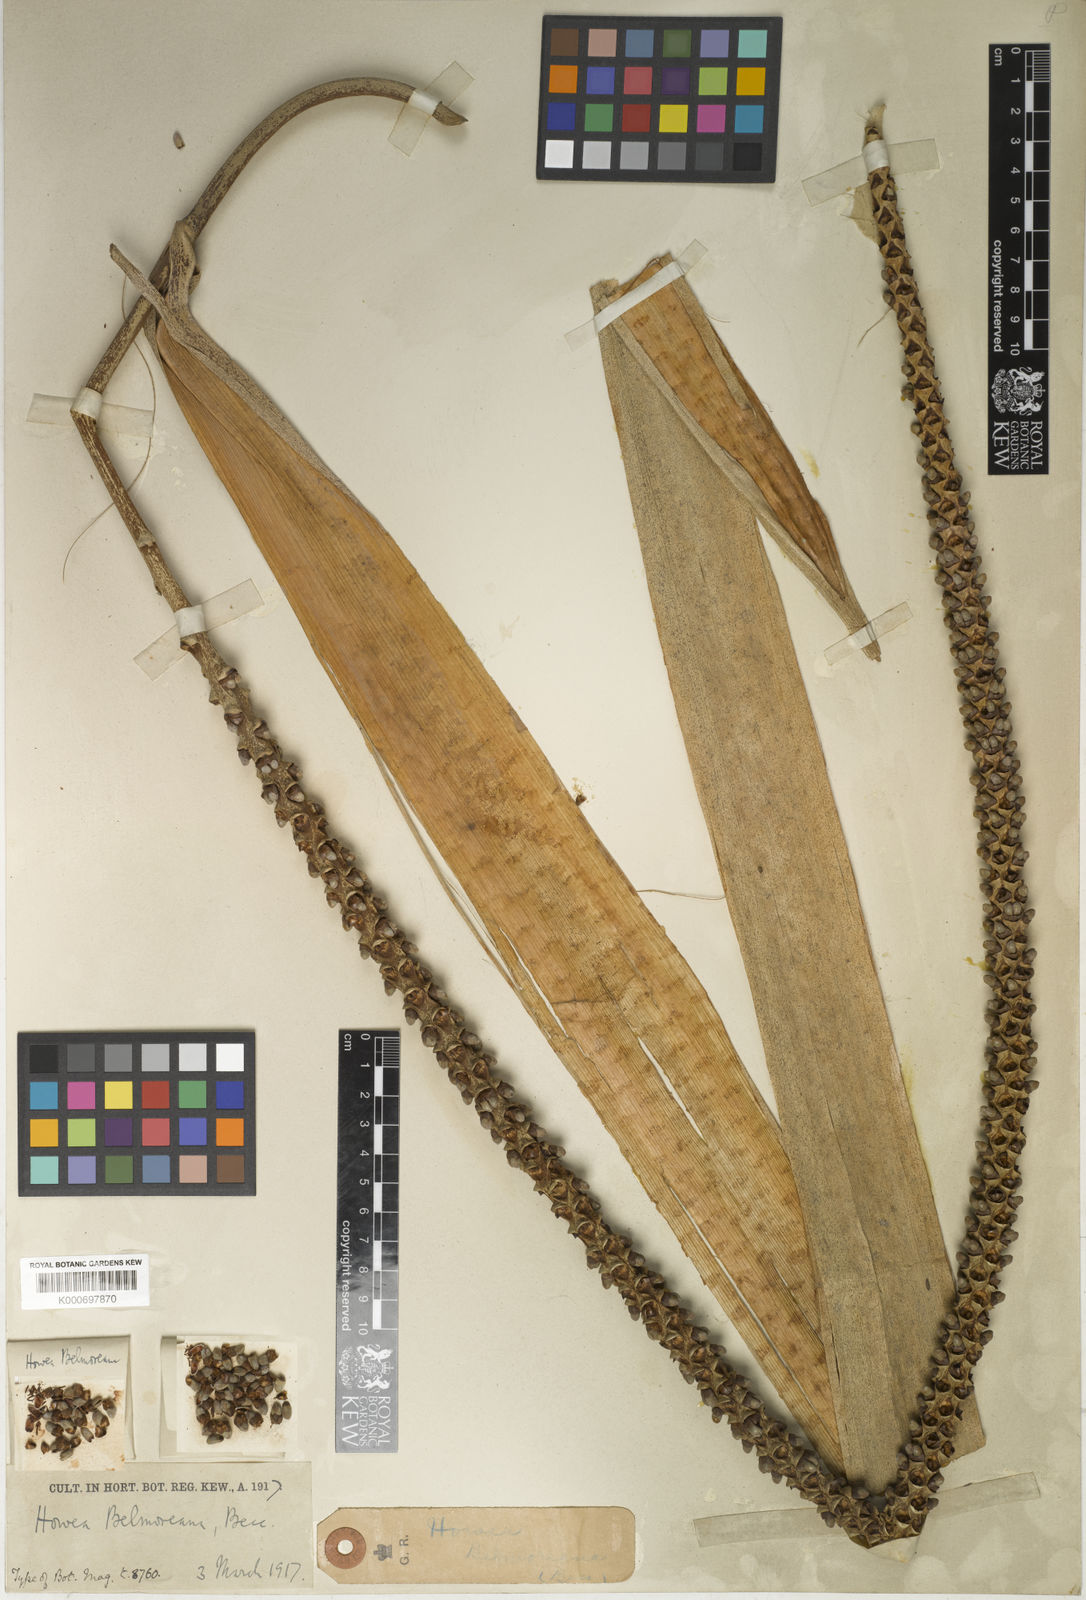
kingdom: Plantae
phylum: Tracheophyta
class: Liliopsida
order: Arecales
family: Arecaceae
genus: Howea
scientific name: Howea belmoreana
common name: Curly palm
